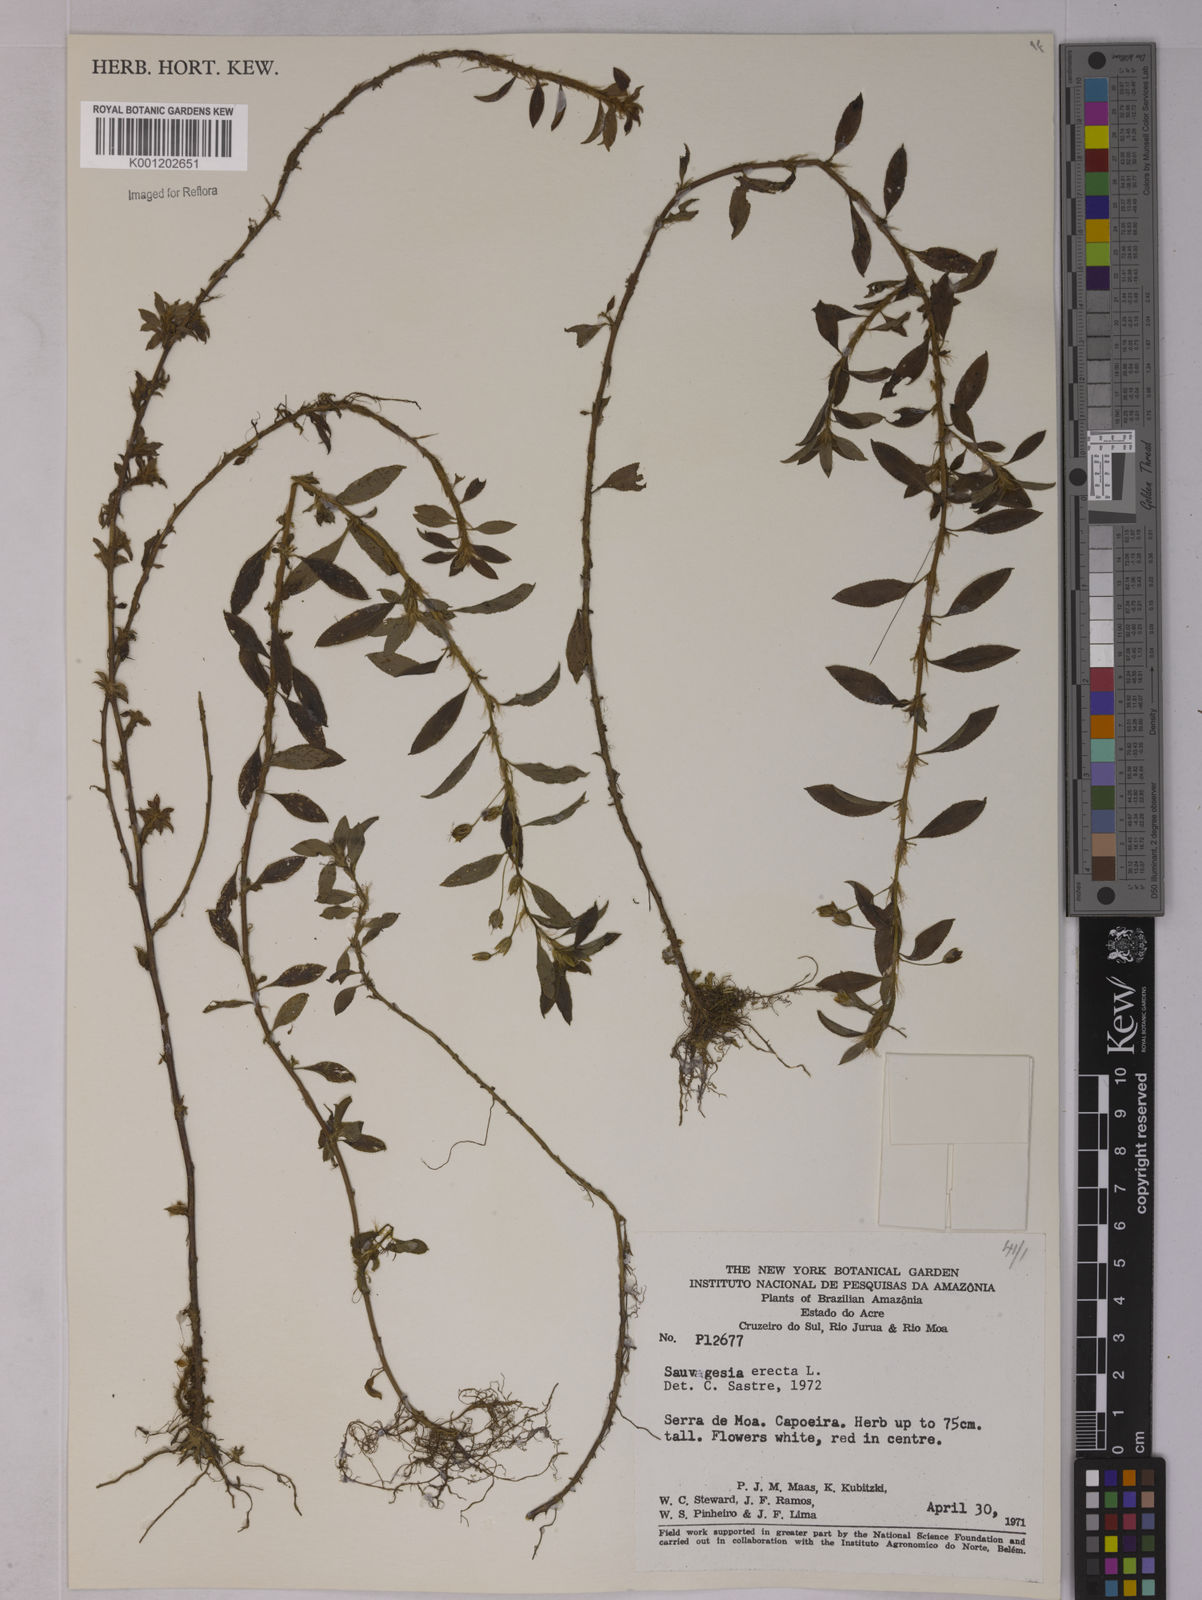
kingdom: Plantae
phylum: Tracheophyta
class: Magnoliopsida
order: Malpighiales
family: Ochnaceae
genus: Sauvagesia
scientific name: Sauvagesia erecta
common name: Creole tea
